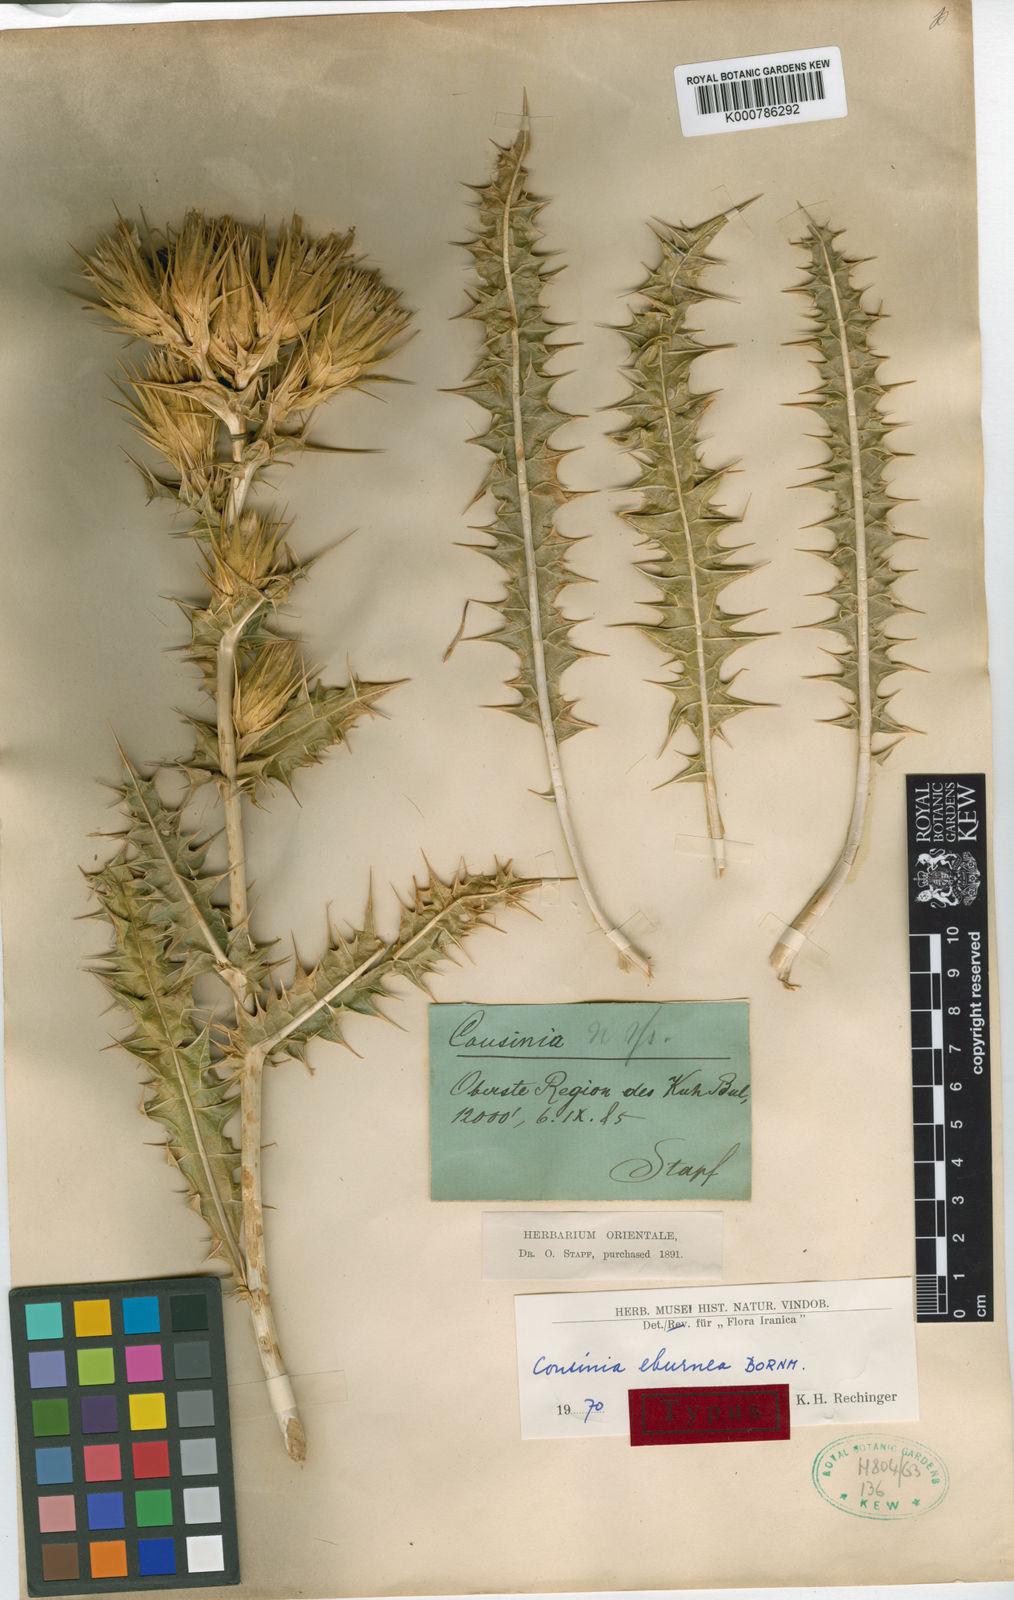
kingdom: Plantae
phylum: Tracheophyta
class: Magnoliopsida
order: Asterales
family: Asteraceae
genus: Cousinia
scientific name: Cousinia eburnea
